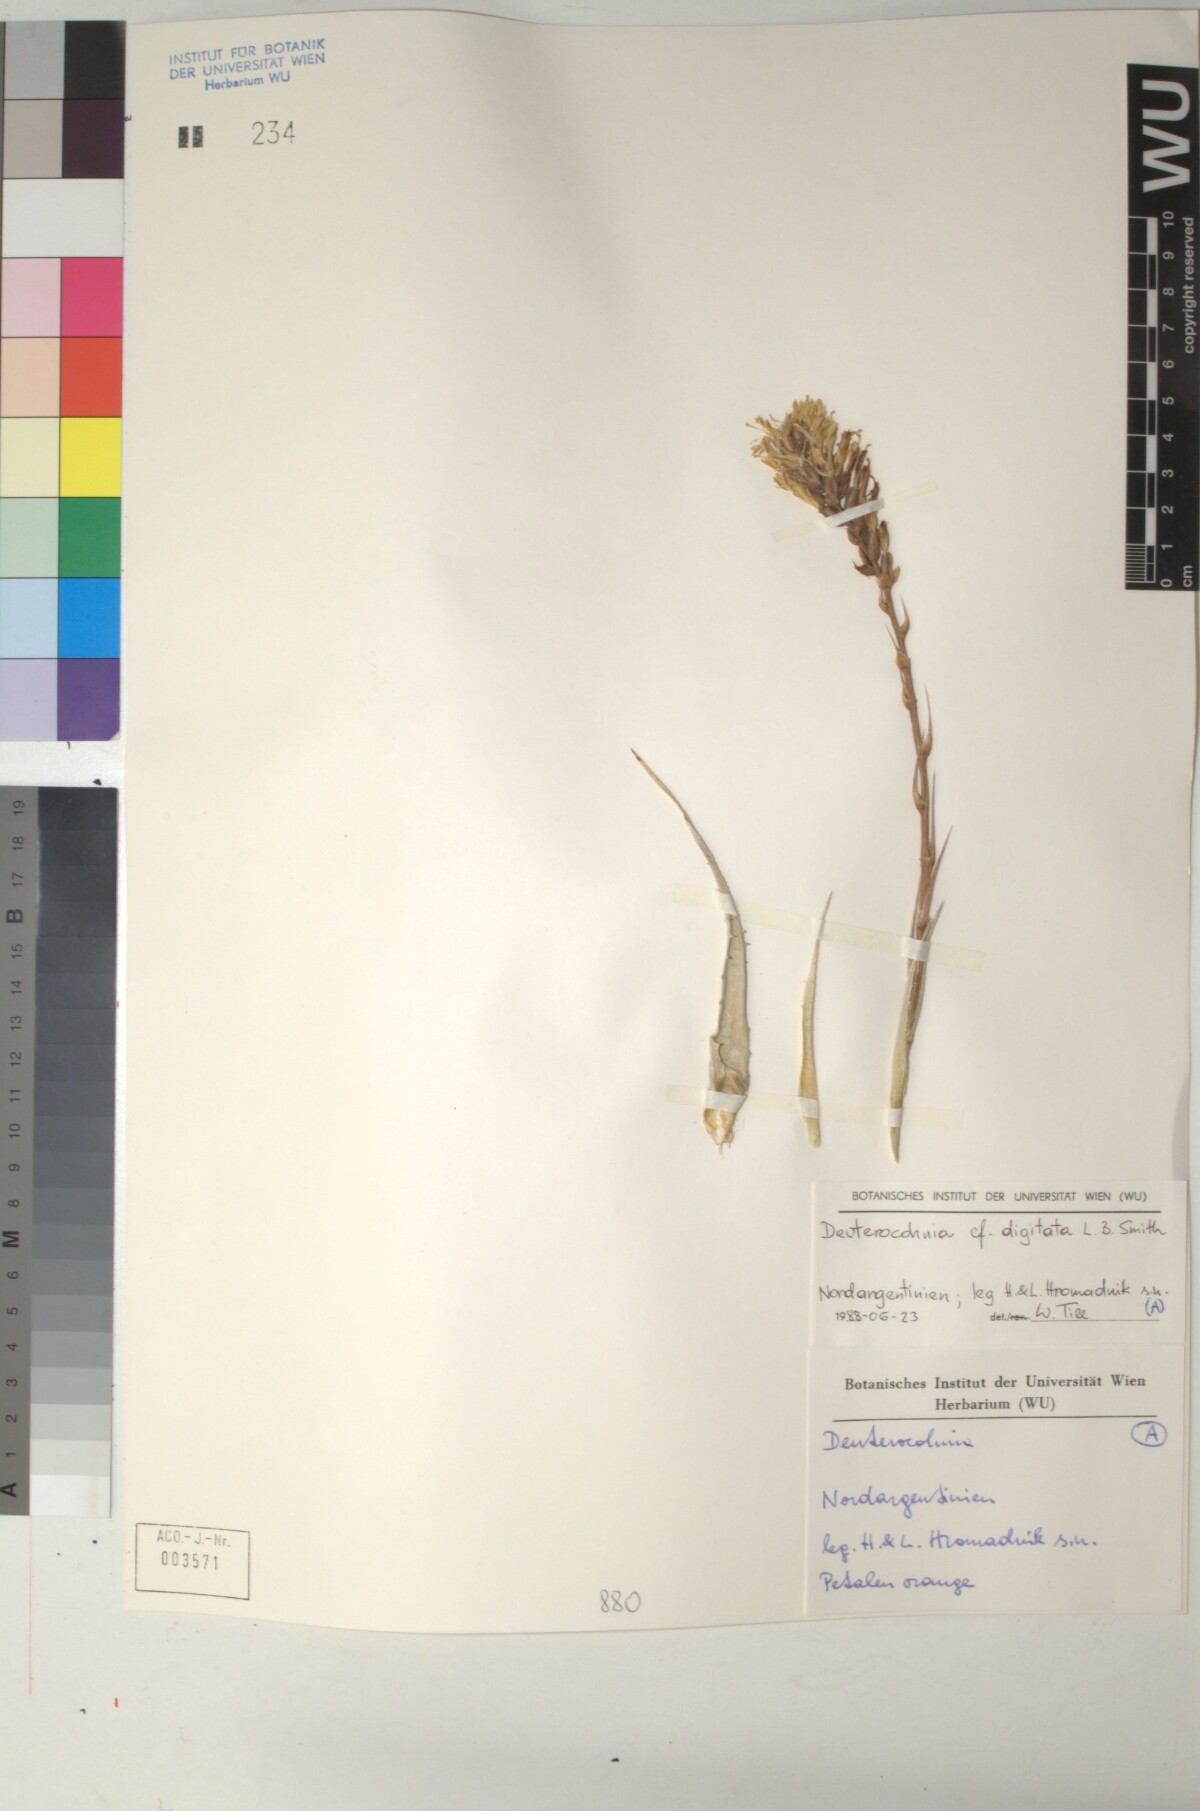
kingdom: Plantae
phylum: Tracheophyta
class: Liliopsida
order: Poales
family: Bromeliaceae
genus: Deuterocohnia
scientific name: Deuterocohnia digitata
